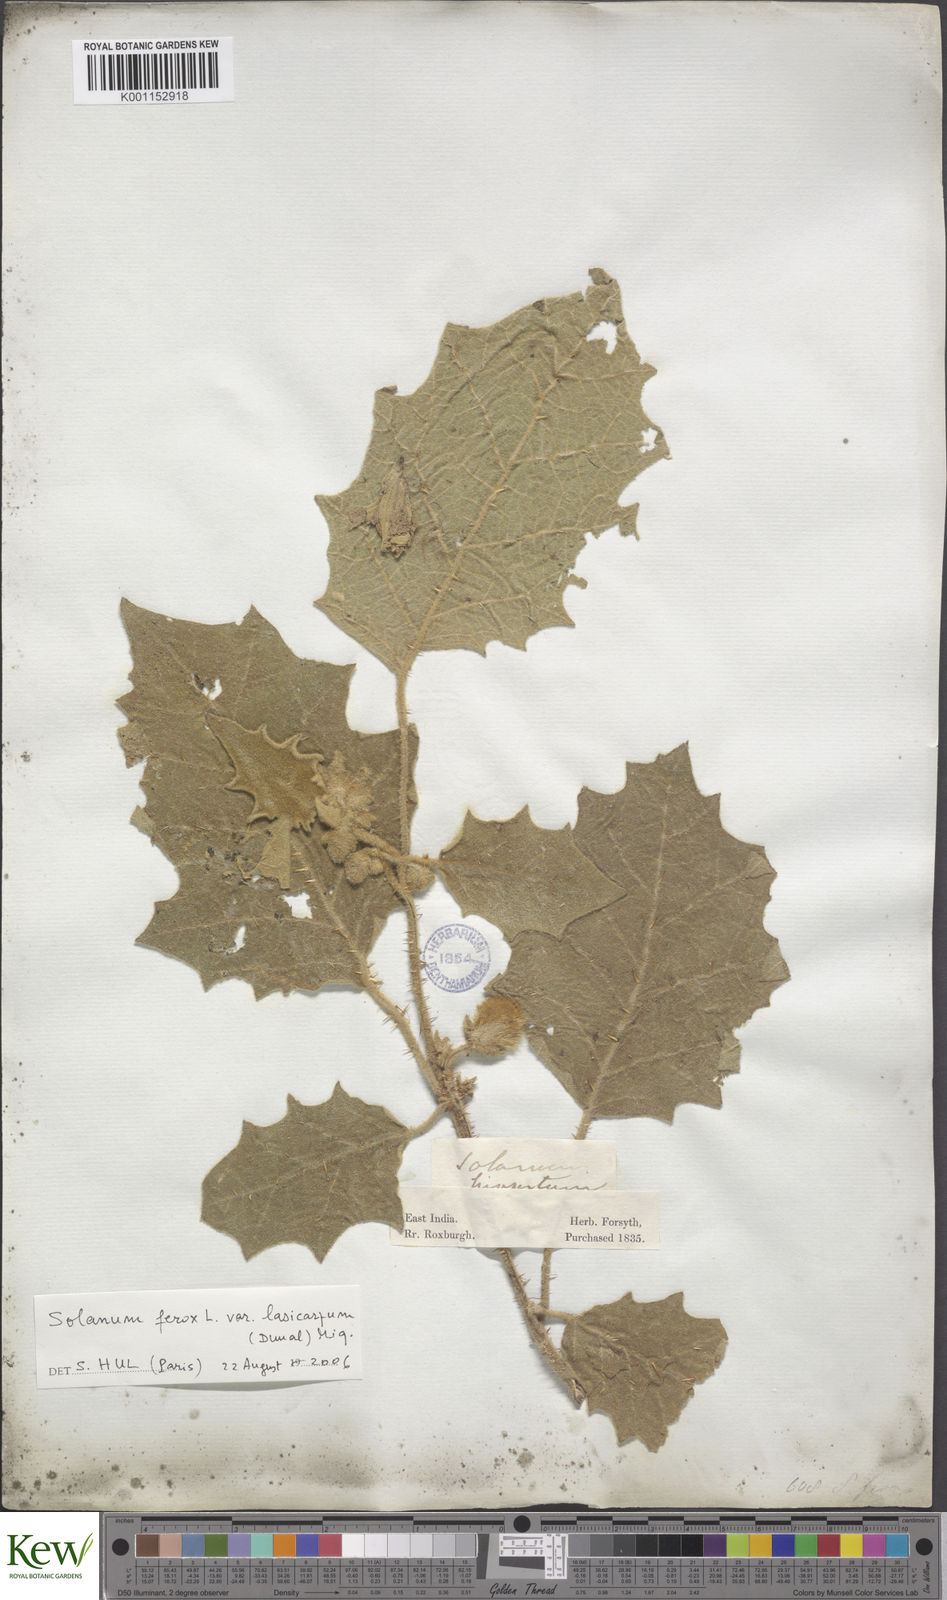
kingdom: Plantae
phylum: Tracheophyta
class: Magnoliopsida
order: Solanales
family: Solanaceae
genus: Solanum
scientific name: Solanum
